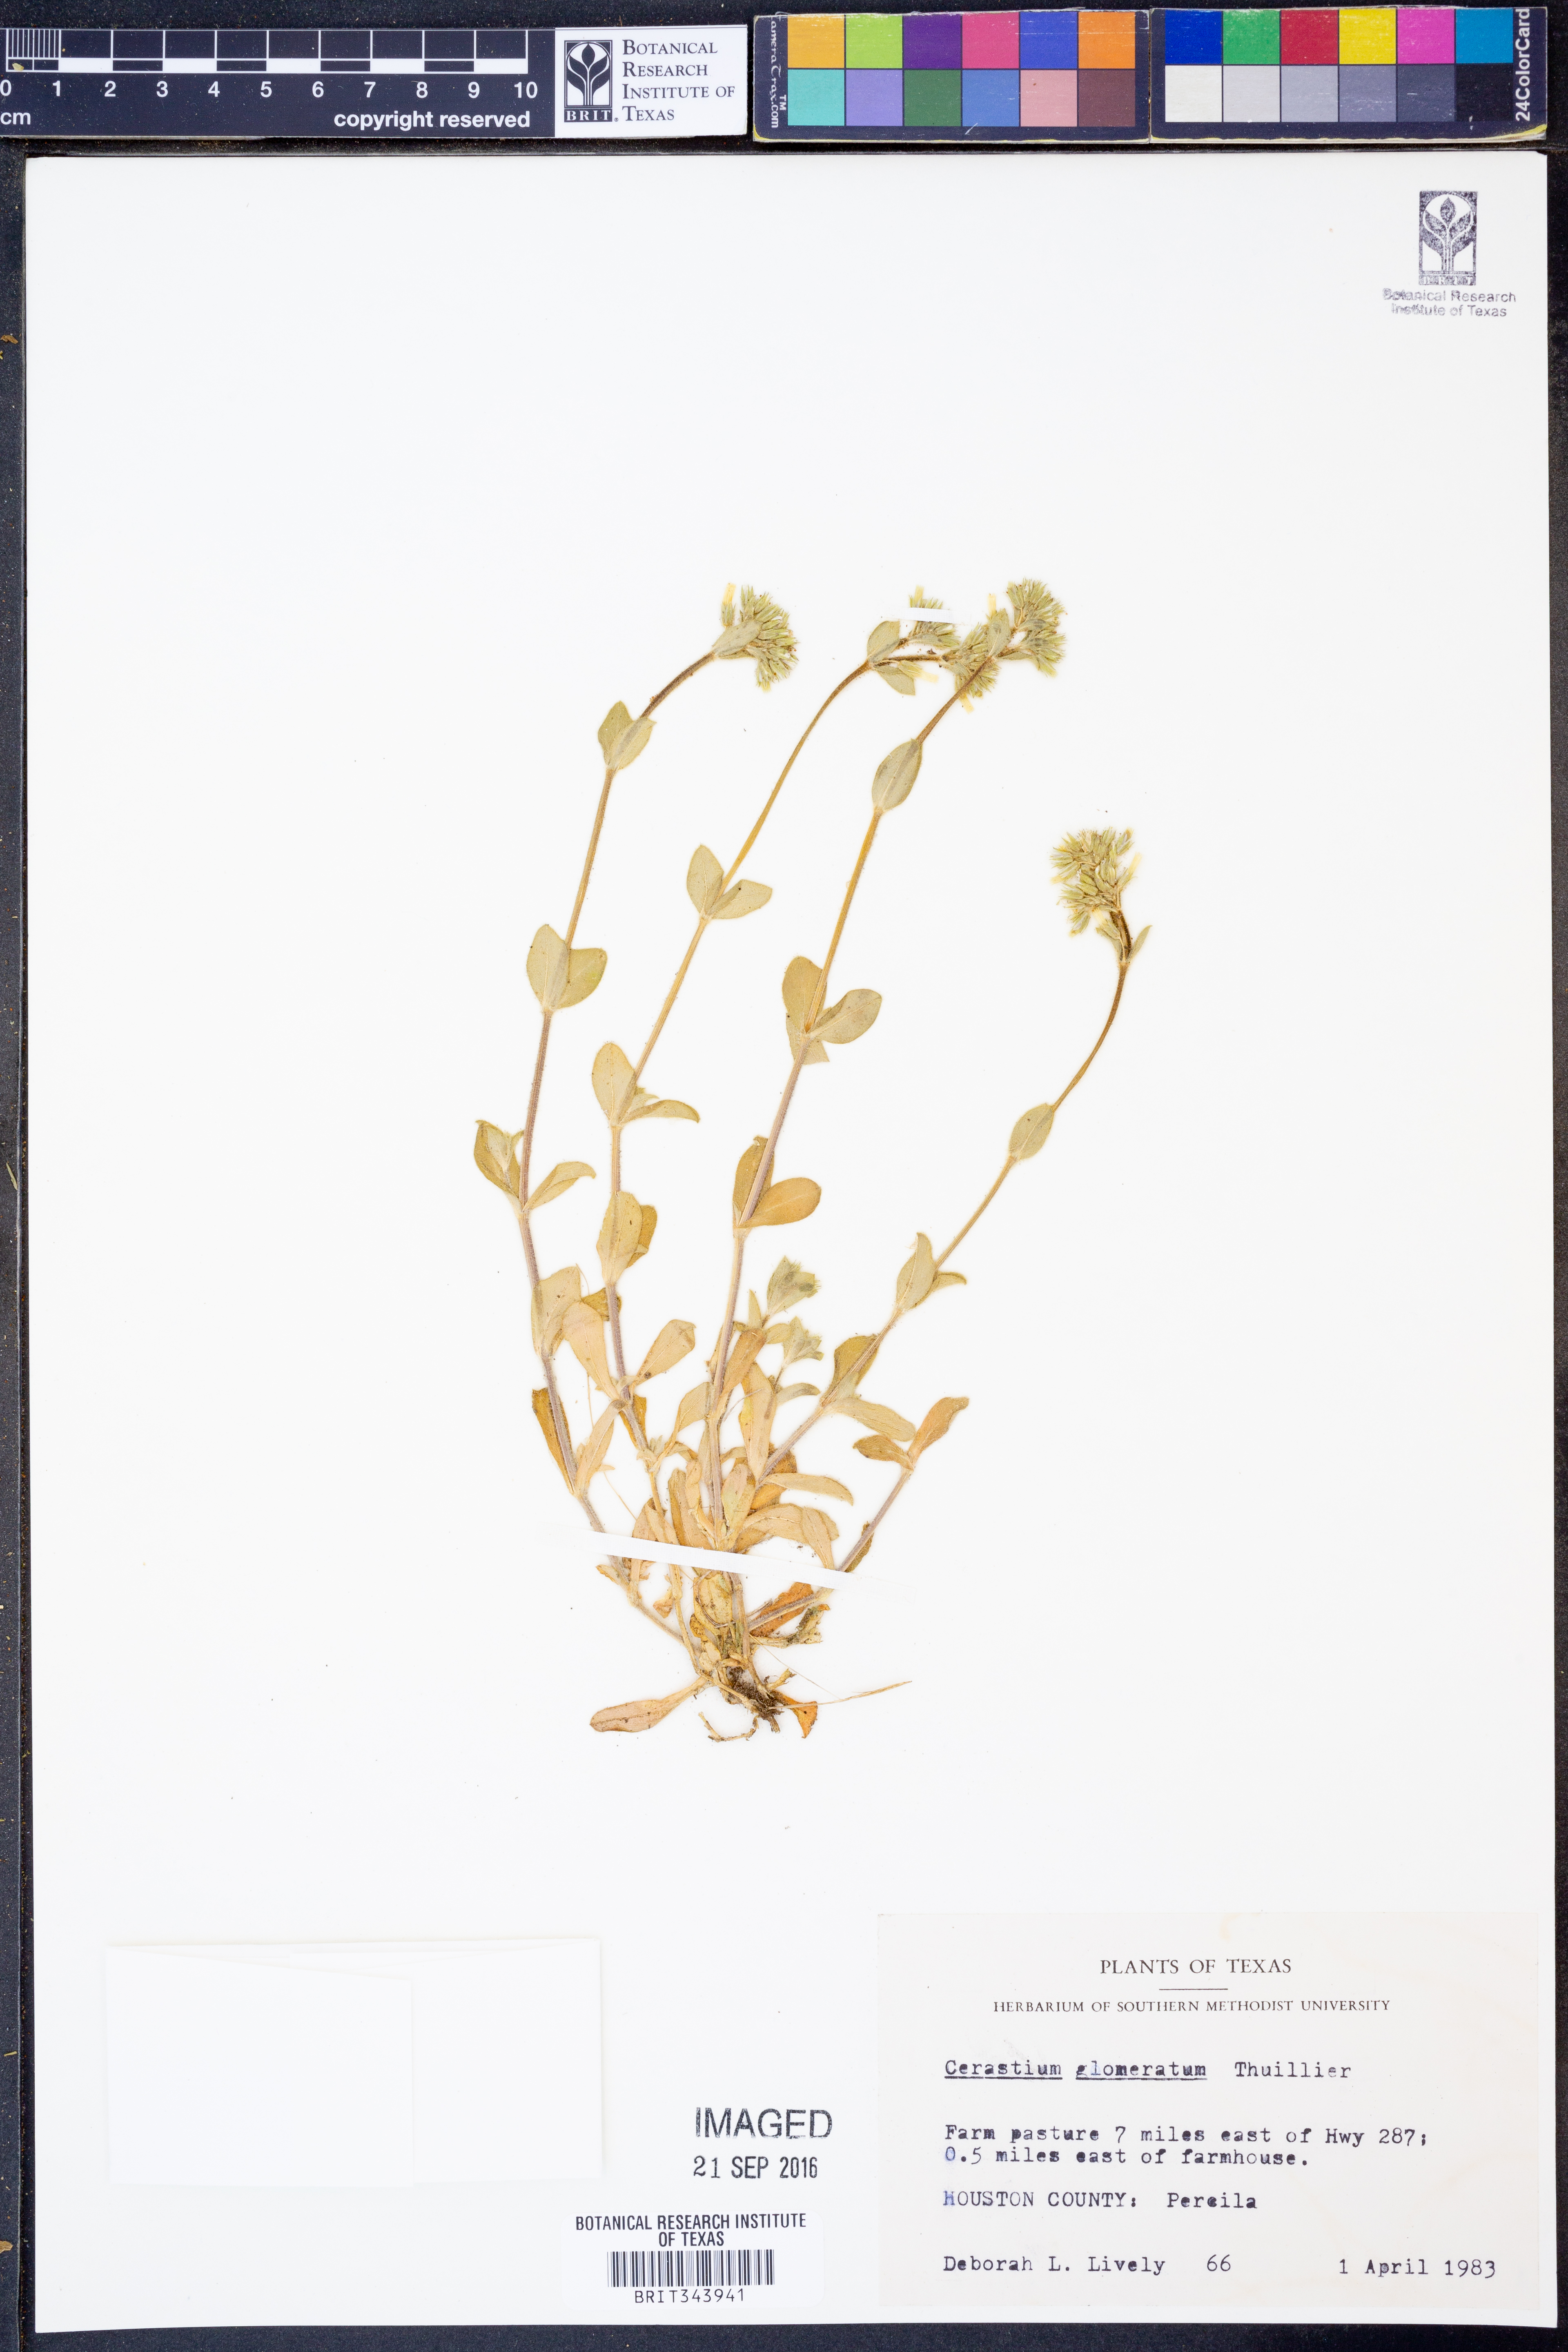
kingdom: Plantae
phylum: Tracheophyta
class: Magnoliopsida
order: Caryophyllales
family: Caryophyllaceae
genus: Cerastium
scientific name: Cerastium glomeratum
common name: Sticky chickweed
